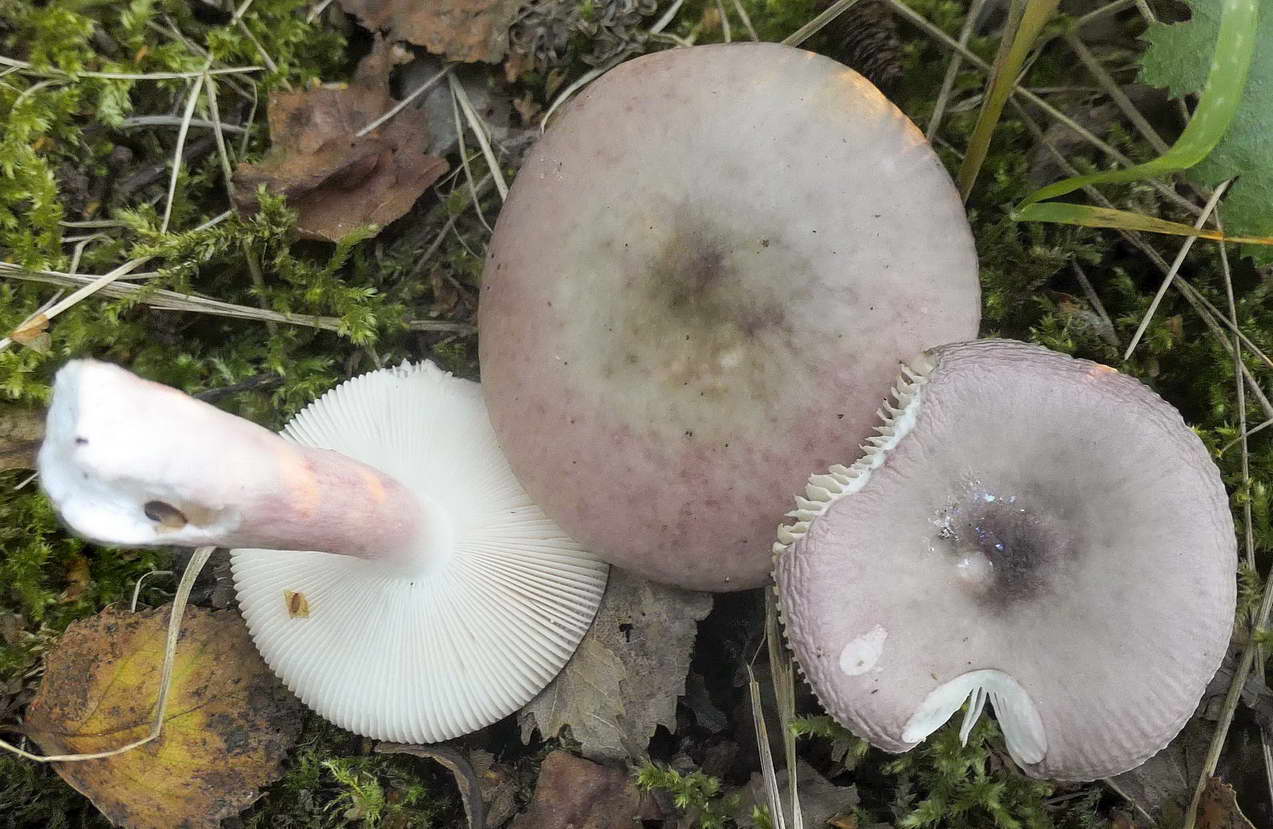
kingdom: Fungi
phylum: Basidiomycota
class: Agaricomycetes
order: Russulales
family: Russulaceae
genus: Russula
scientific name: Russula gracillima
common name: slank skørhat
